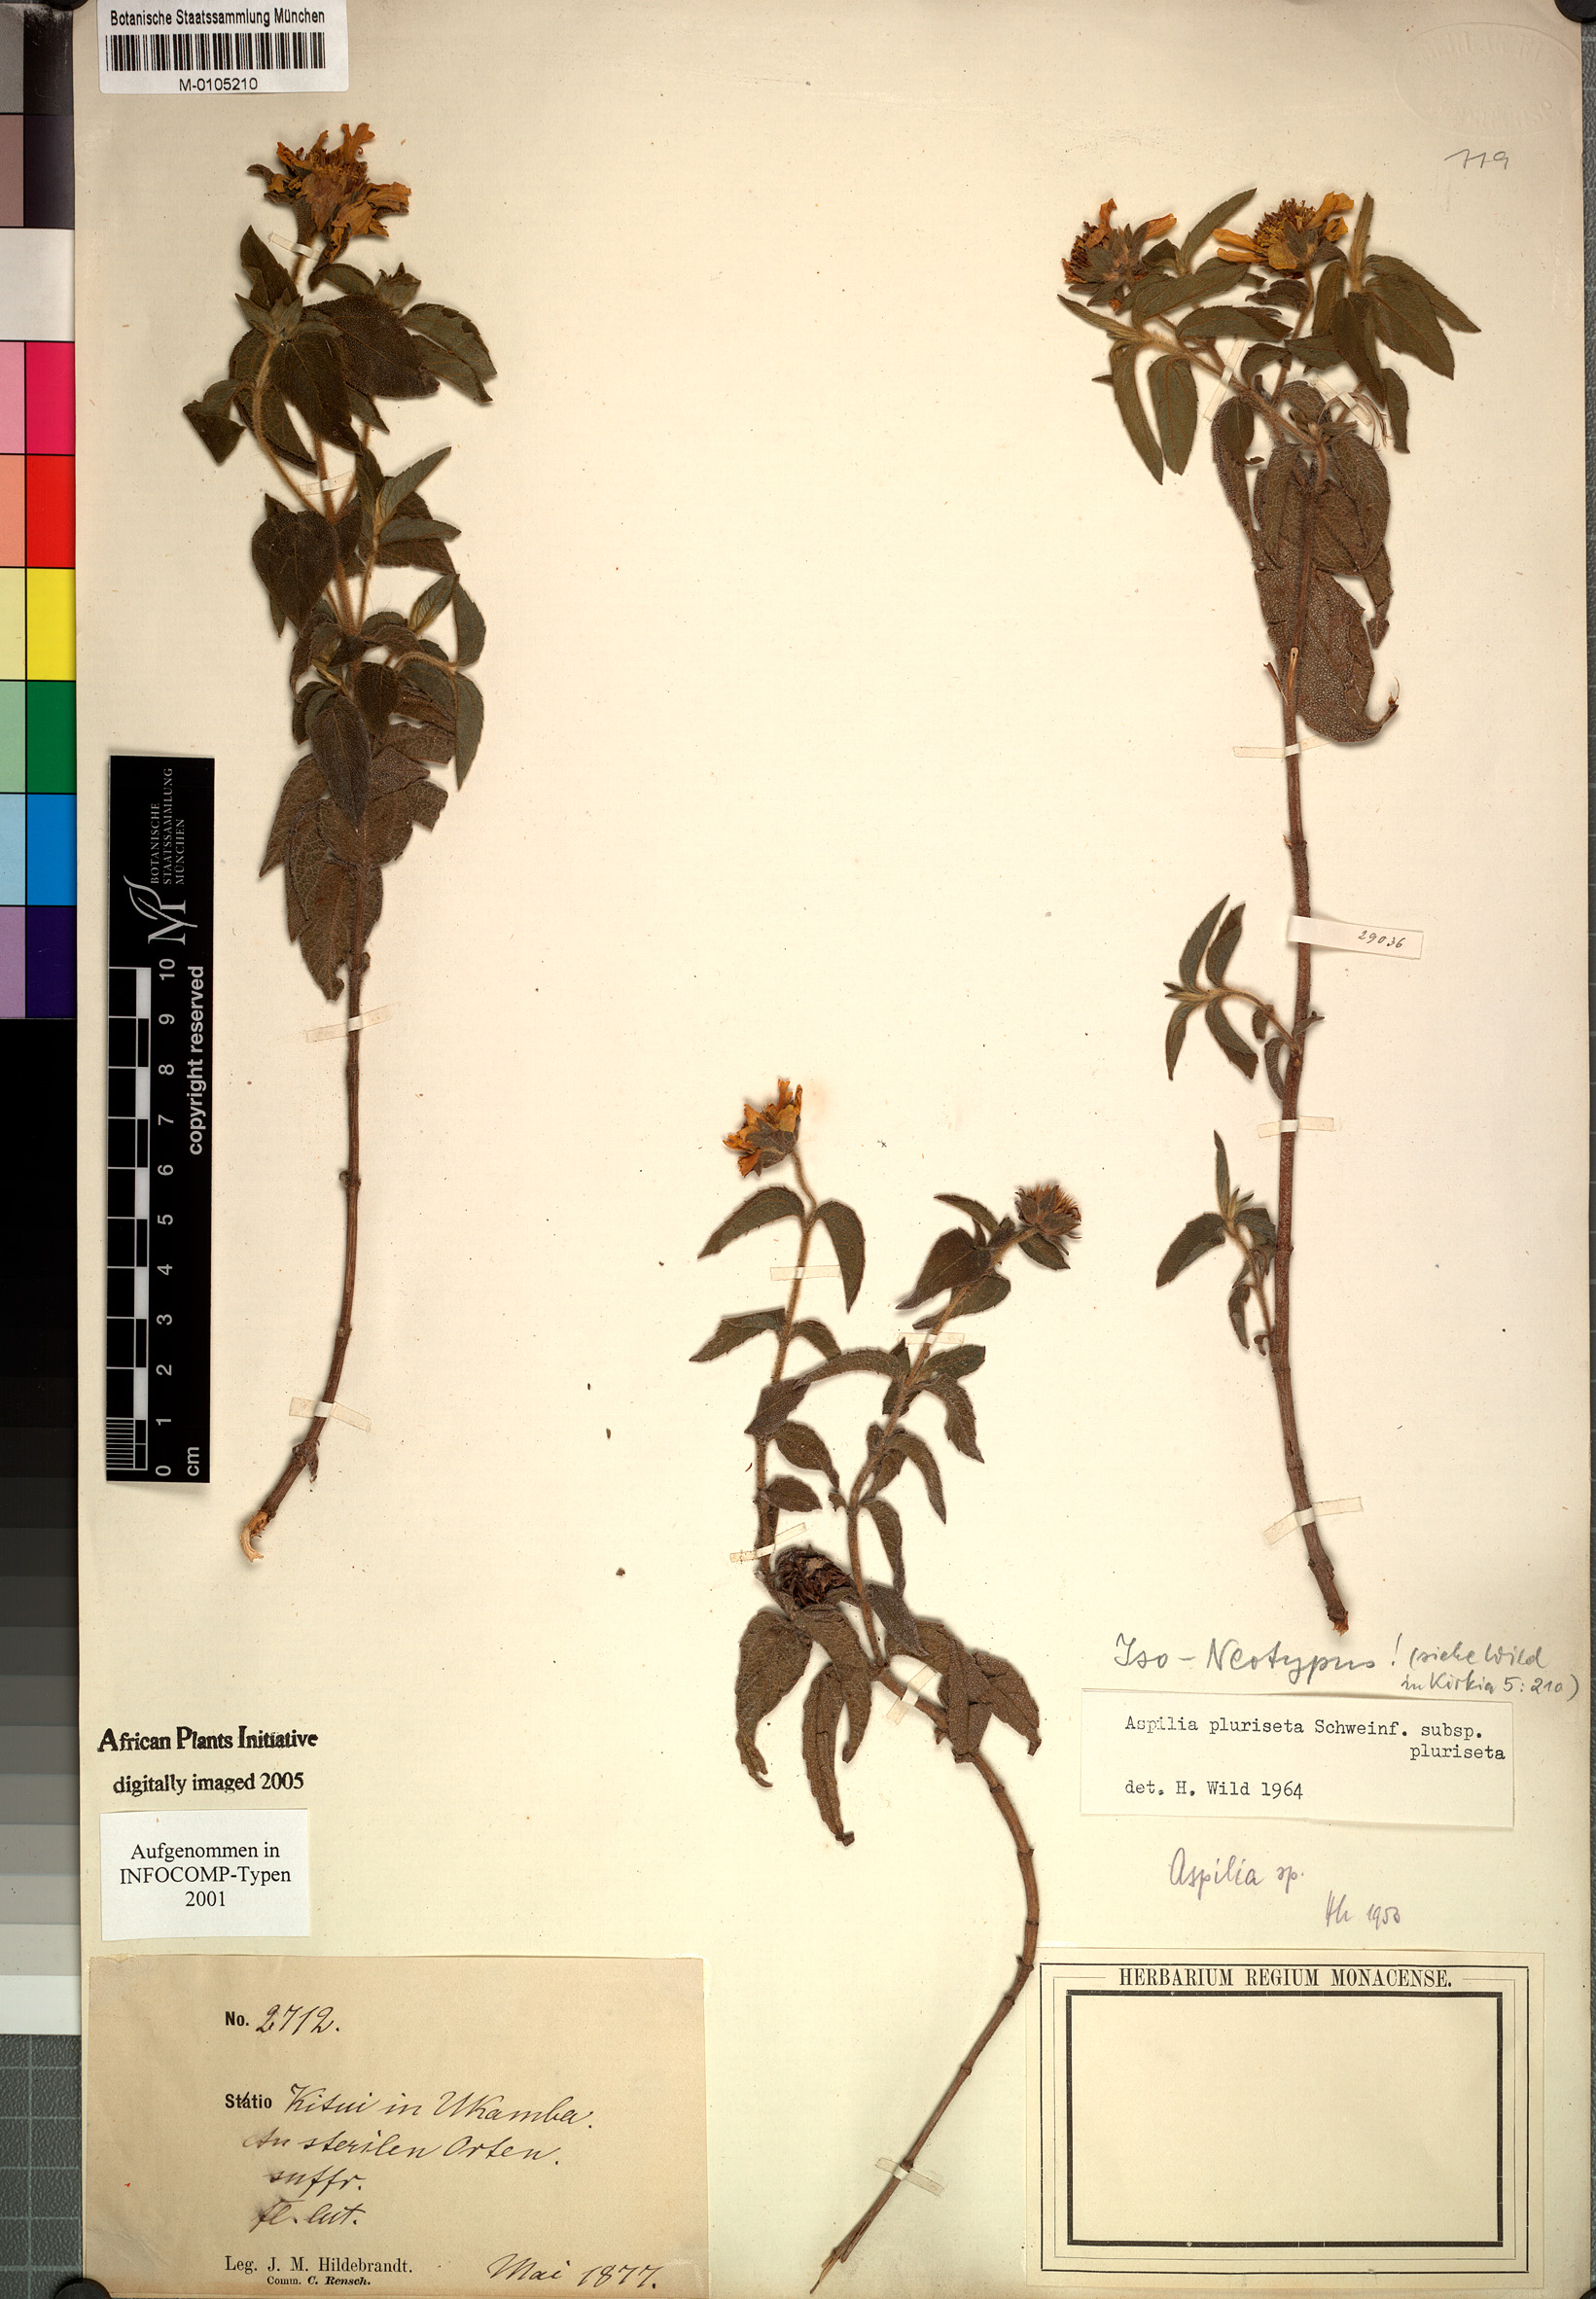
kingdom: Plantae
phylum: Tracheophyta
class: Magnoliopsida
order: Asterales
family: Asteraceae
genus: Aspilia
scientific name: Aspilia pluriseta
